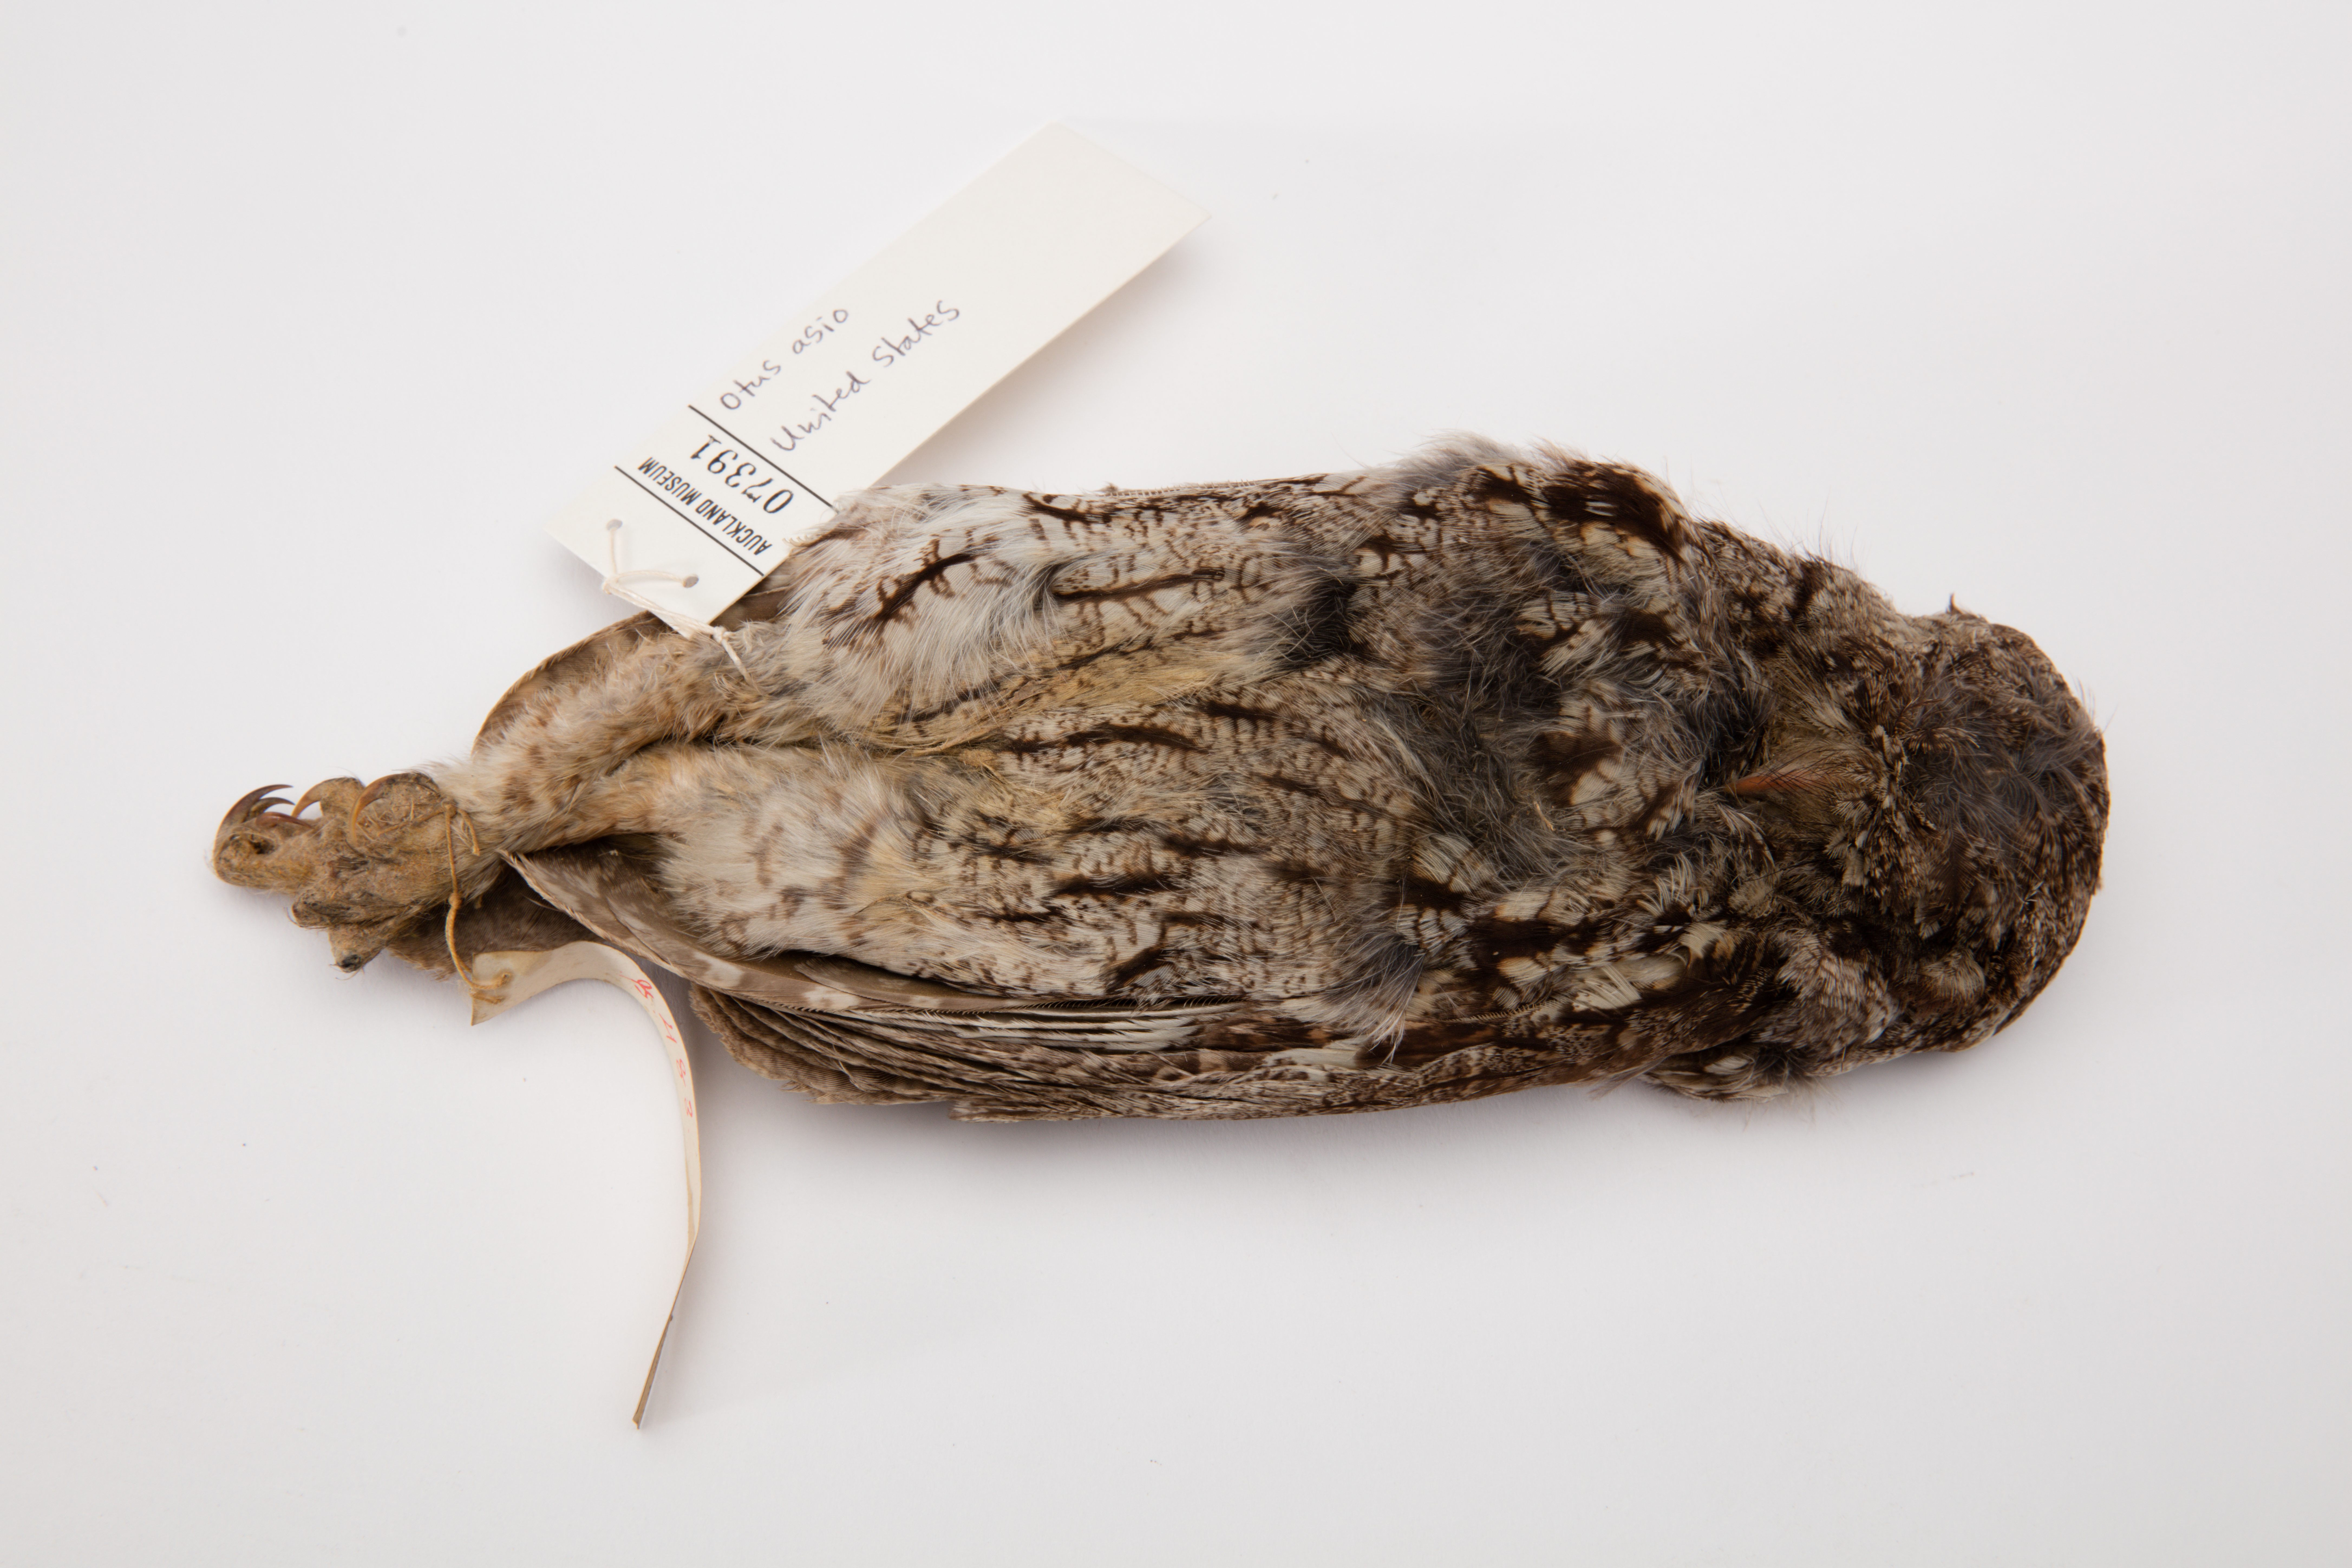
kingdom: Animalia
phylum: Chordata
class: Aves
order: Strigiformes
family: Strigidae
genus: Megascops
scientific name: Megascops asio
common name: Eastern screech-owl
